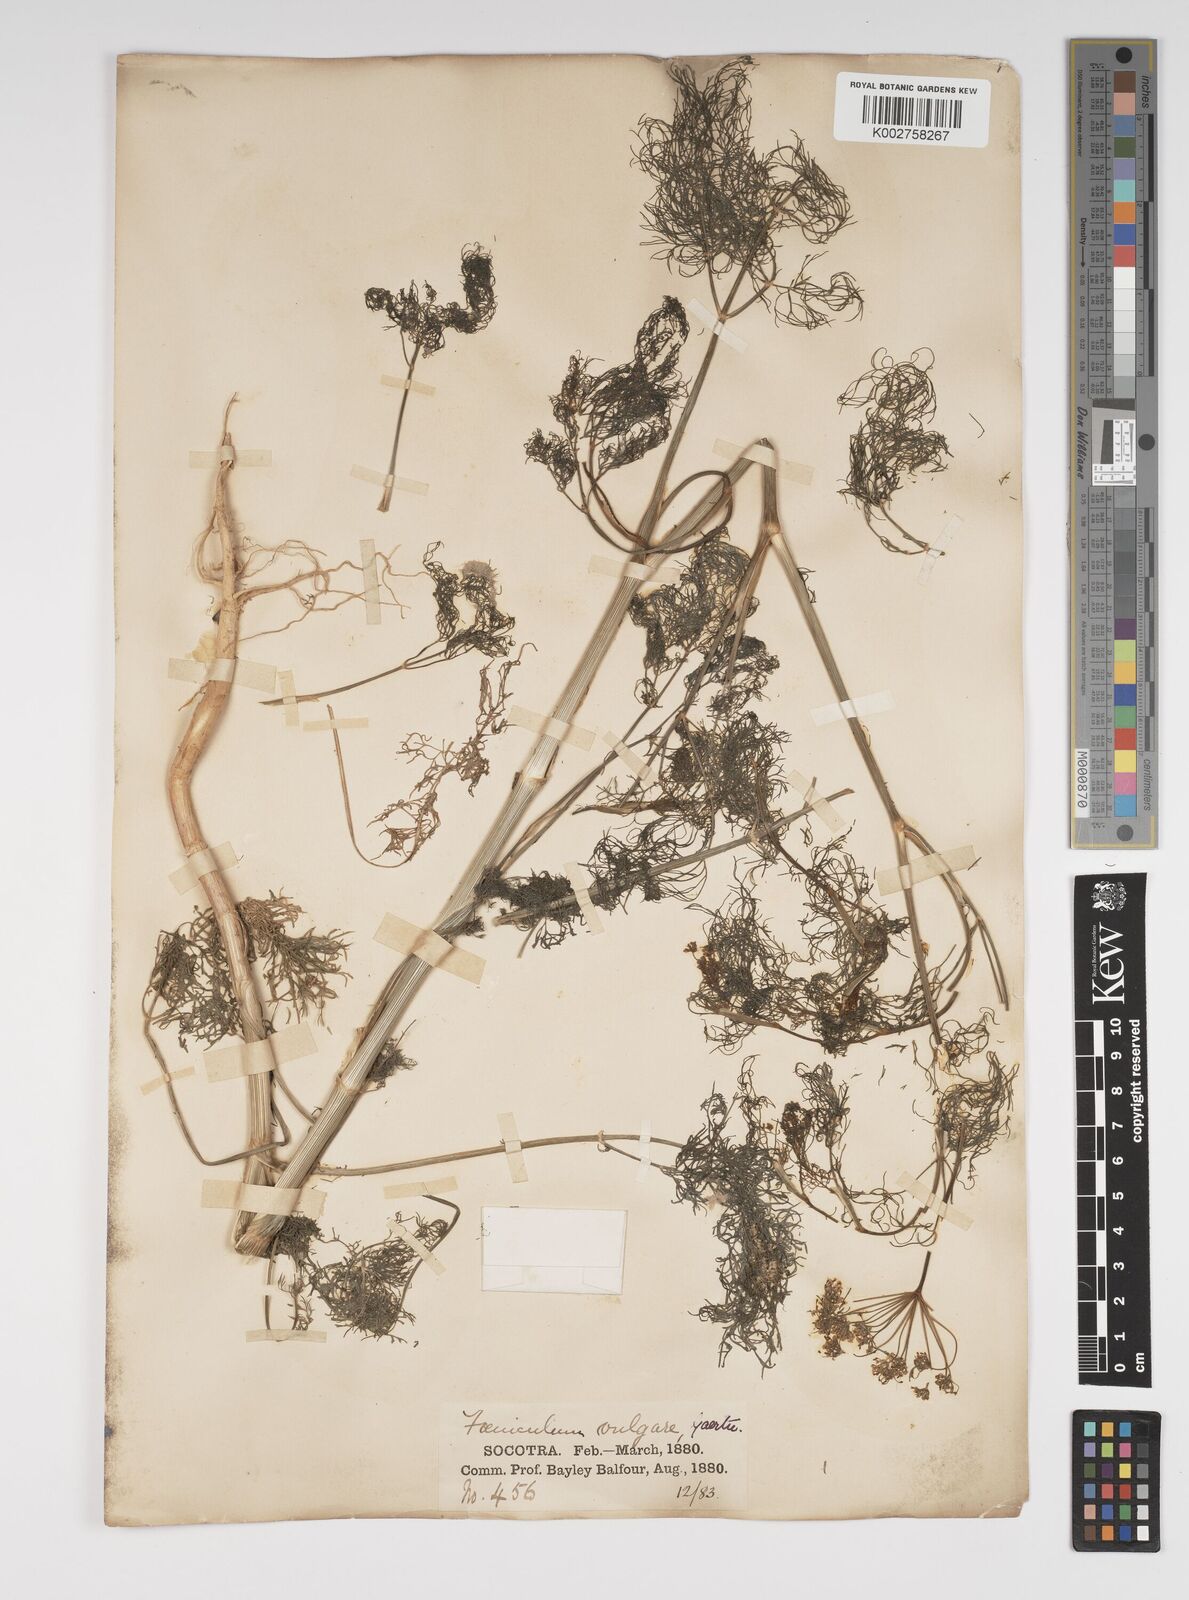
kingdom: Plantae
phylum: Tracheophyta
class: Magnoliopsida
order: Apiales
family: Apiaceae
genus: Foeniculum
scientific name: Foeniculum vulgare
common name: Fennel
